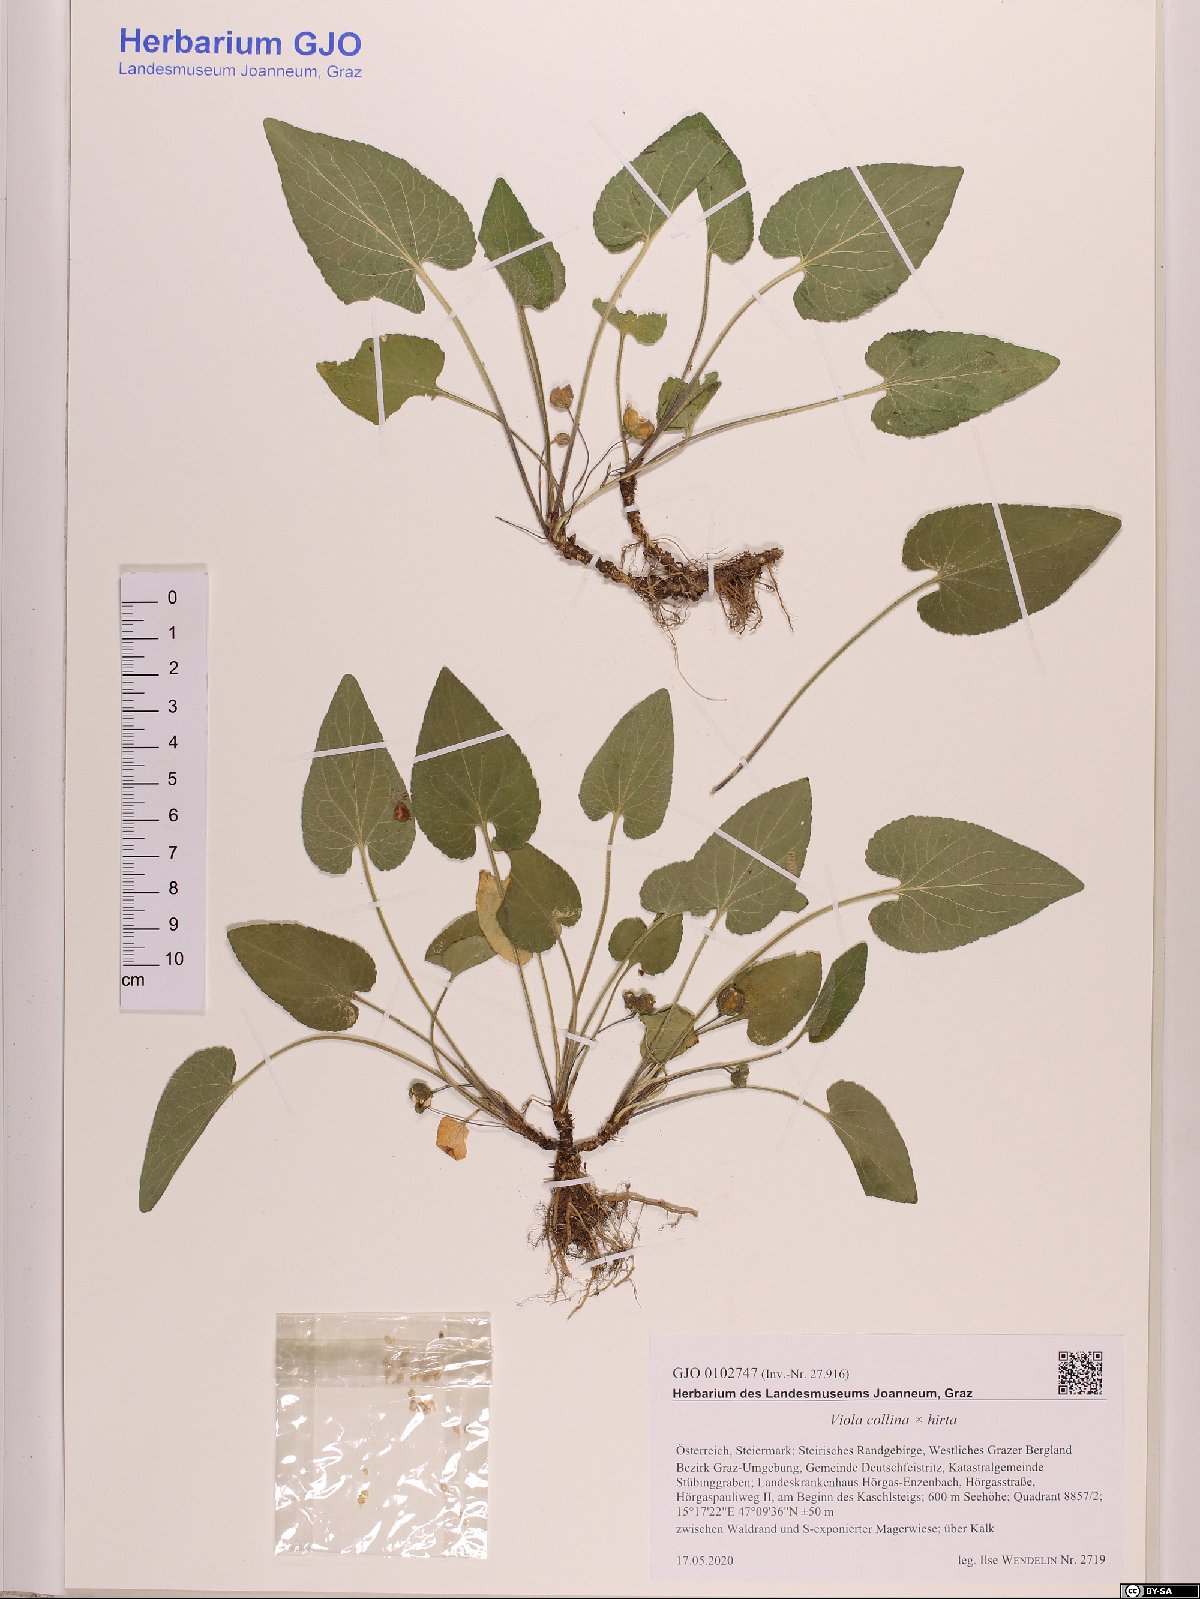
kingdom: Plantae
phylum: Tracheophyta
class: Magnoliopsida
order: Malpighiales
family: Violaceae
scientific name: Violaceae
